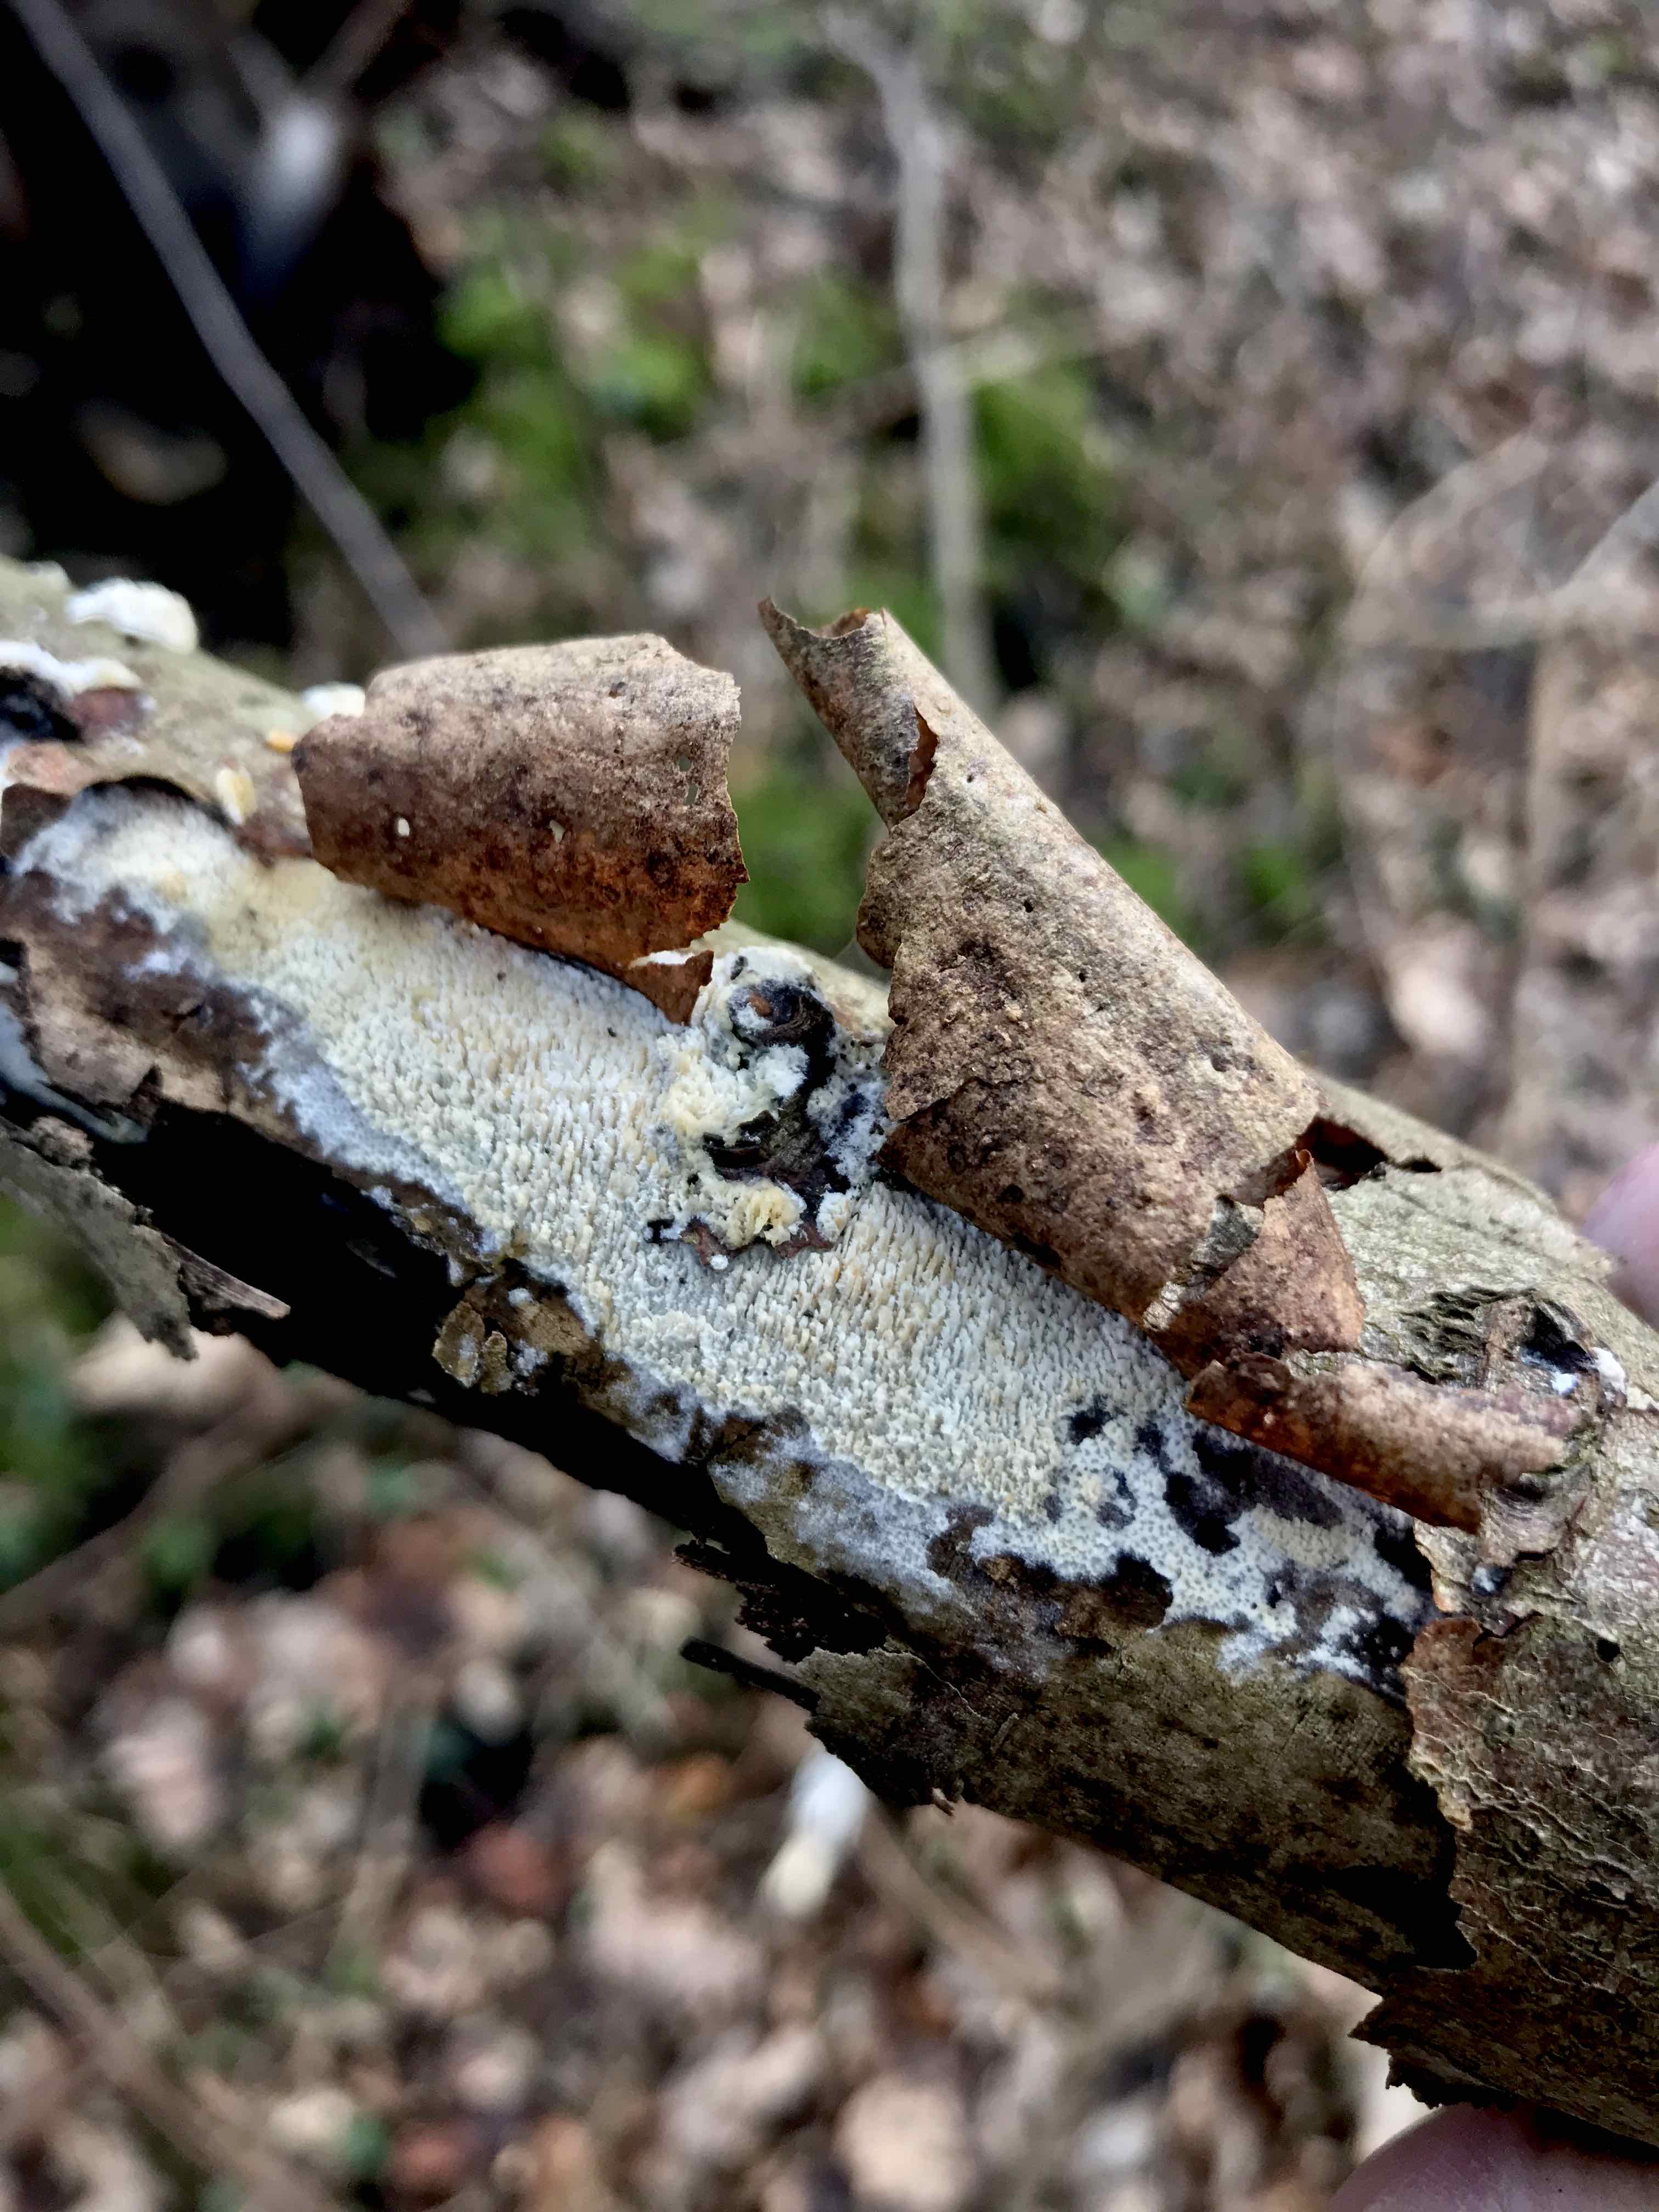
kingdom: Fungi
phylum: Basidiomycota
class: Agaricomycetes
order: Hymenochaetales
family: Schizoporaceae
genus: Schizopora
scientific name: Schizopora paradoxa
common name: hvid tandsvamp
